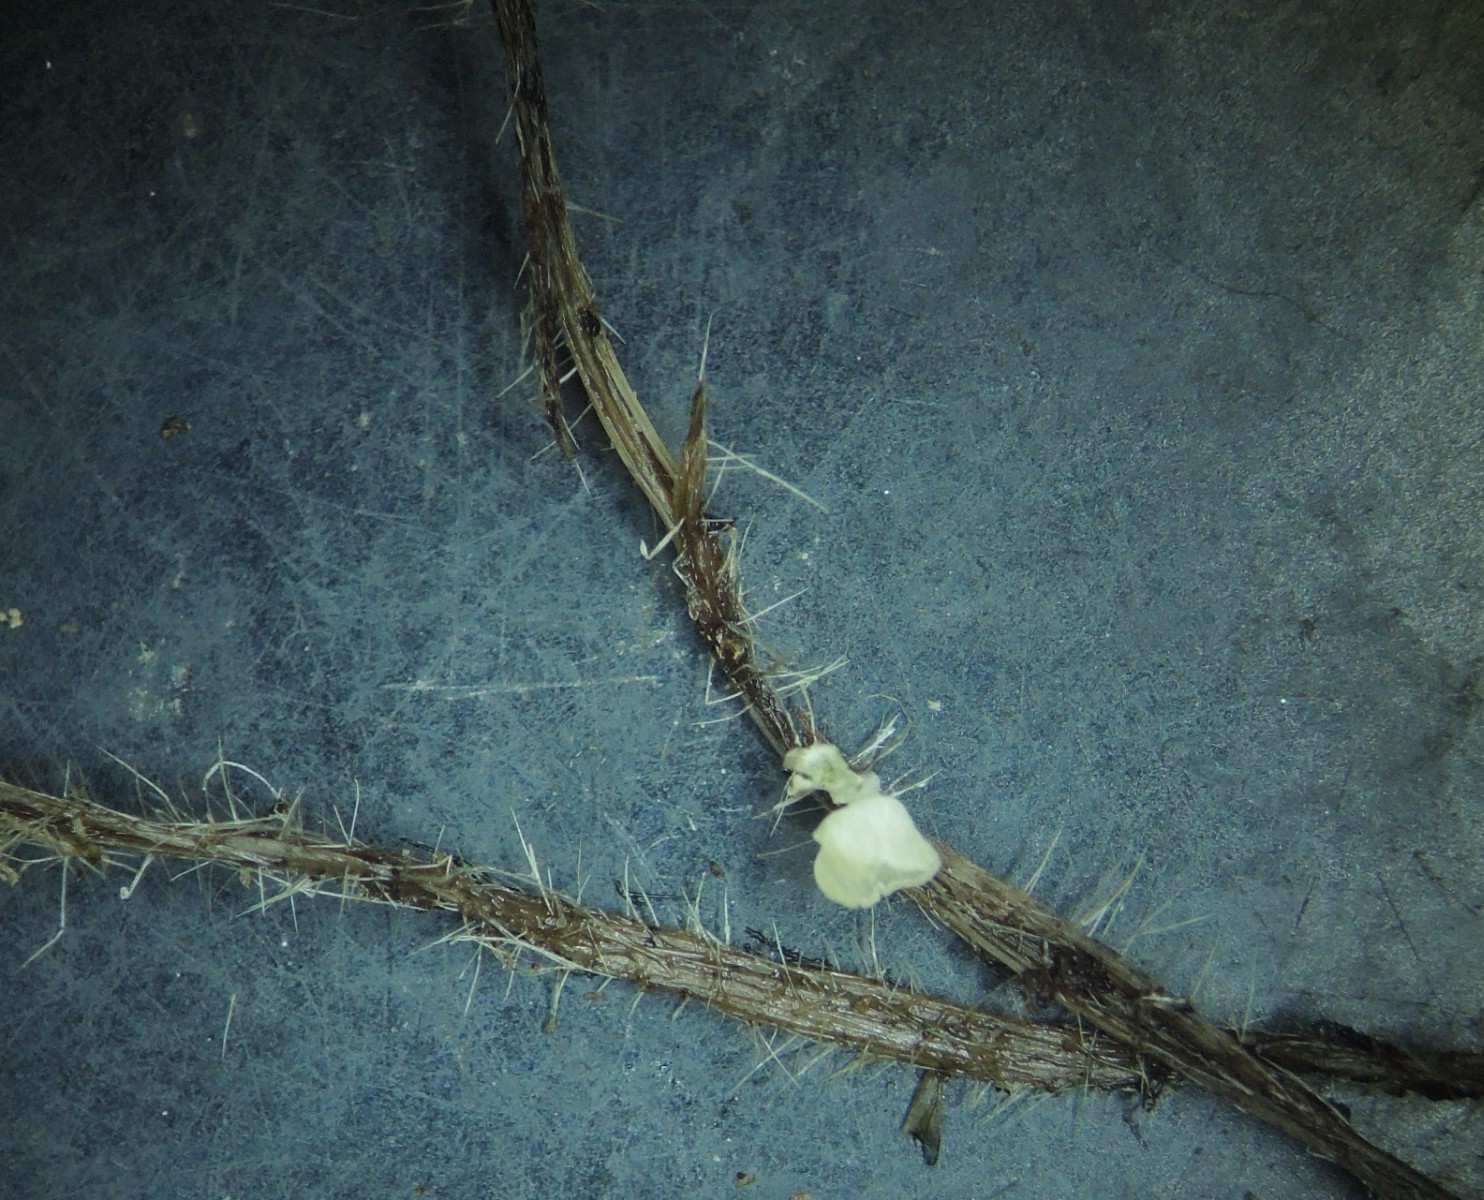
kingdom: Fungi
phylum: Basidiomycota
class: Agaricomycetes
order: Agaricales
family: Marasmiaceae
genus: Calyptella
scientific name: Calyptella capula
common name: hvidlig nældehue
